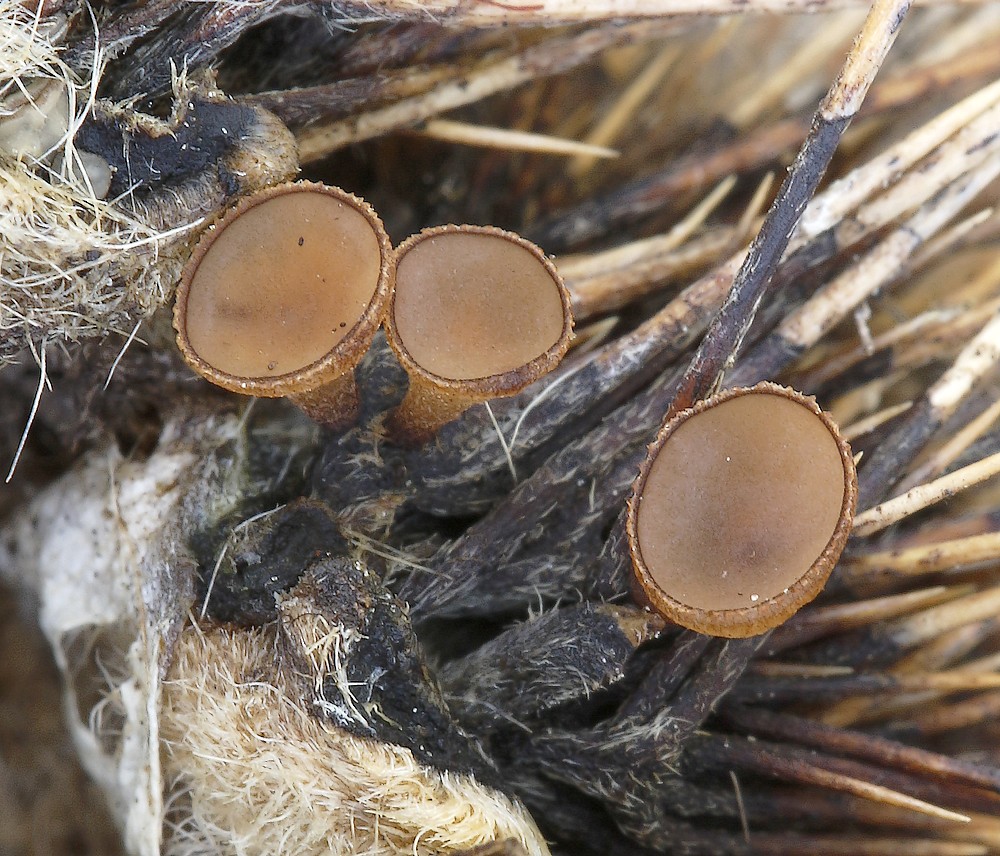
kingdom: Fungi
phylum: Ascomycota
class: Leotiomycetes
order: Helotiales
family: Rutstroemiaceae
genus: Rutstroemia
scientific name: Rutstroemia
